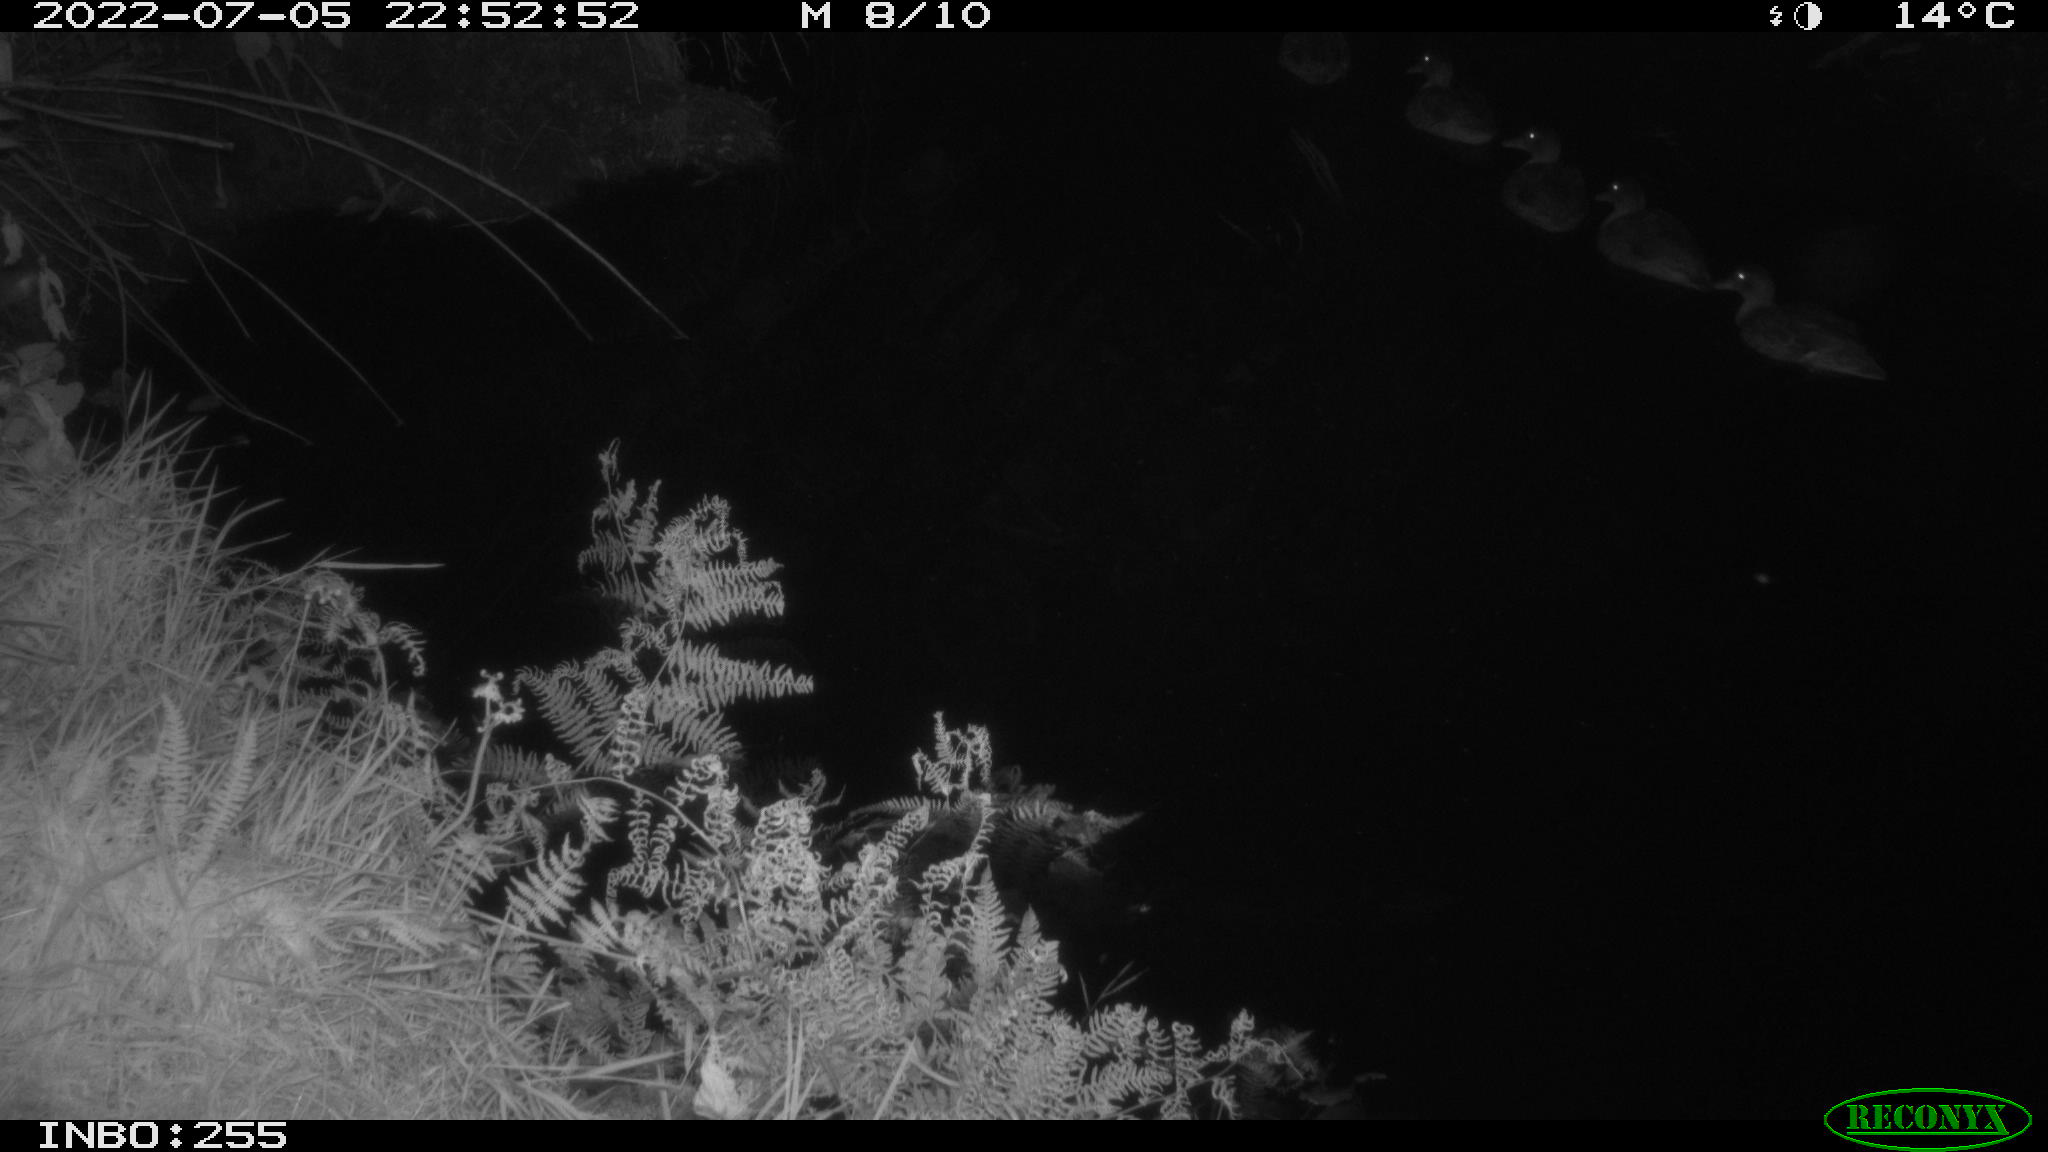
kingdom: Animalia
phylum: Chordata
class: Aves
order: Anseriformes
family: Anatidae
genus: Anas
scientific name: Anas platyrhynchos
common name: Mallard
